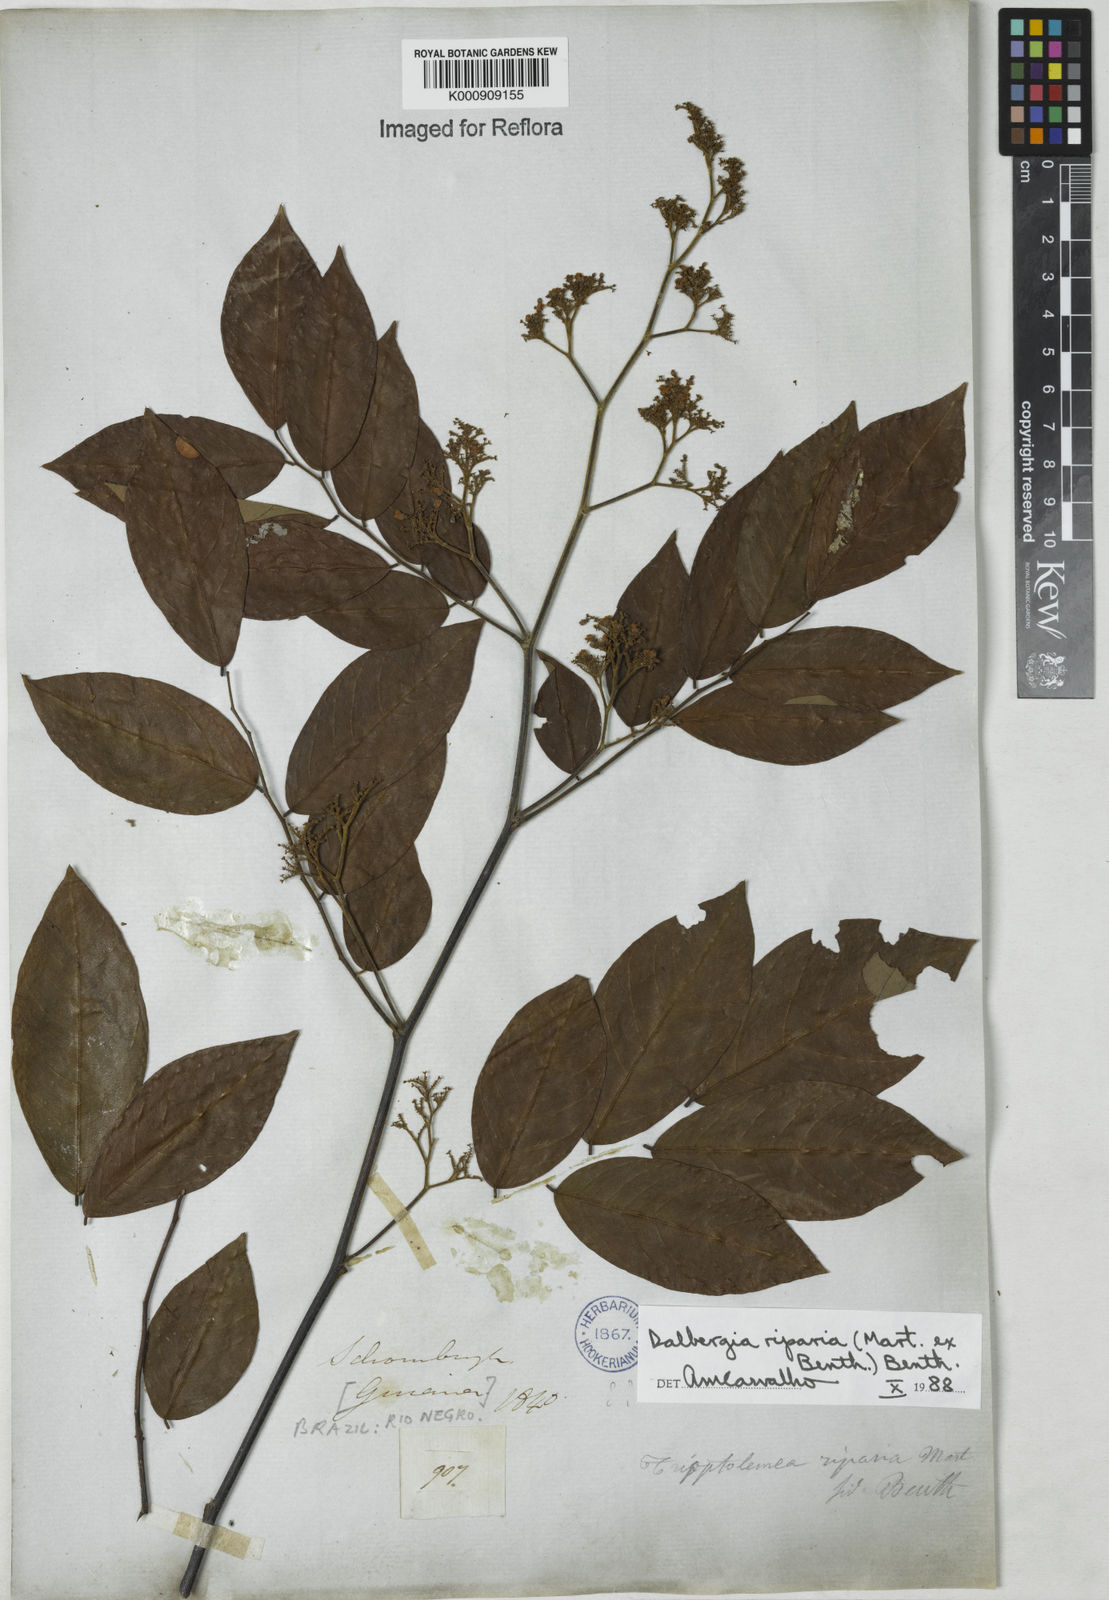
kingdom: Plantae
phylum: Tracheophyta
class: Magnoliopsida
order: Fabales
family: Fabaceae
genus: Dalbergia
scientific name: Dalbergia riparia
